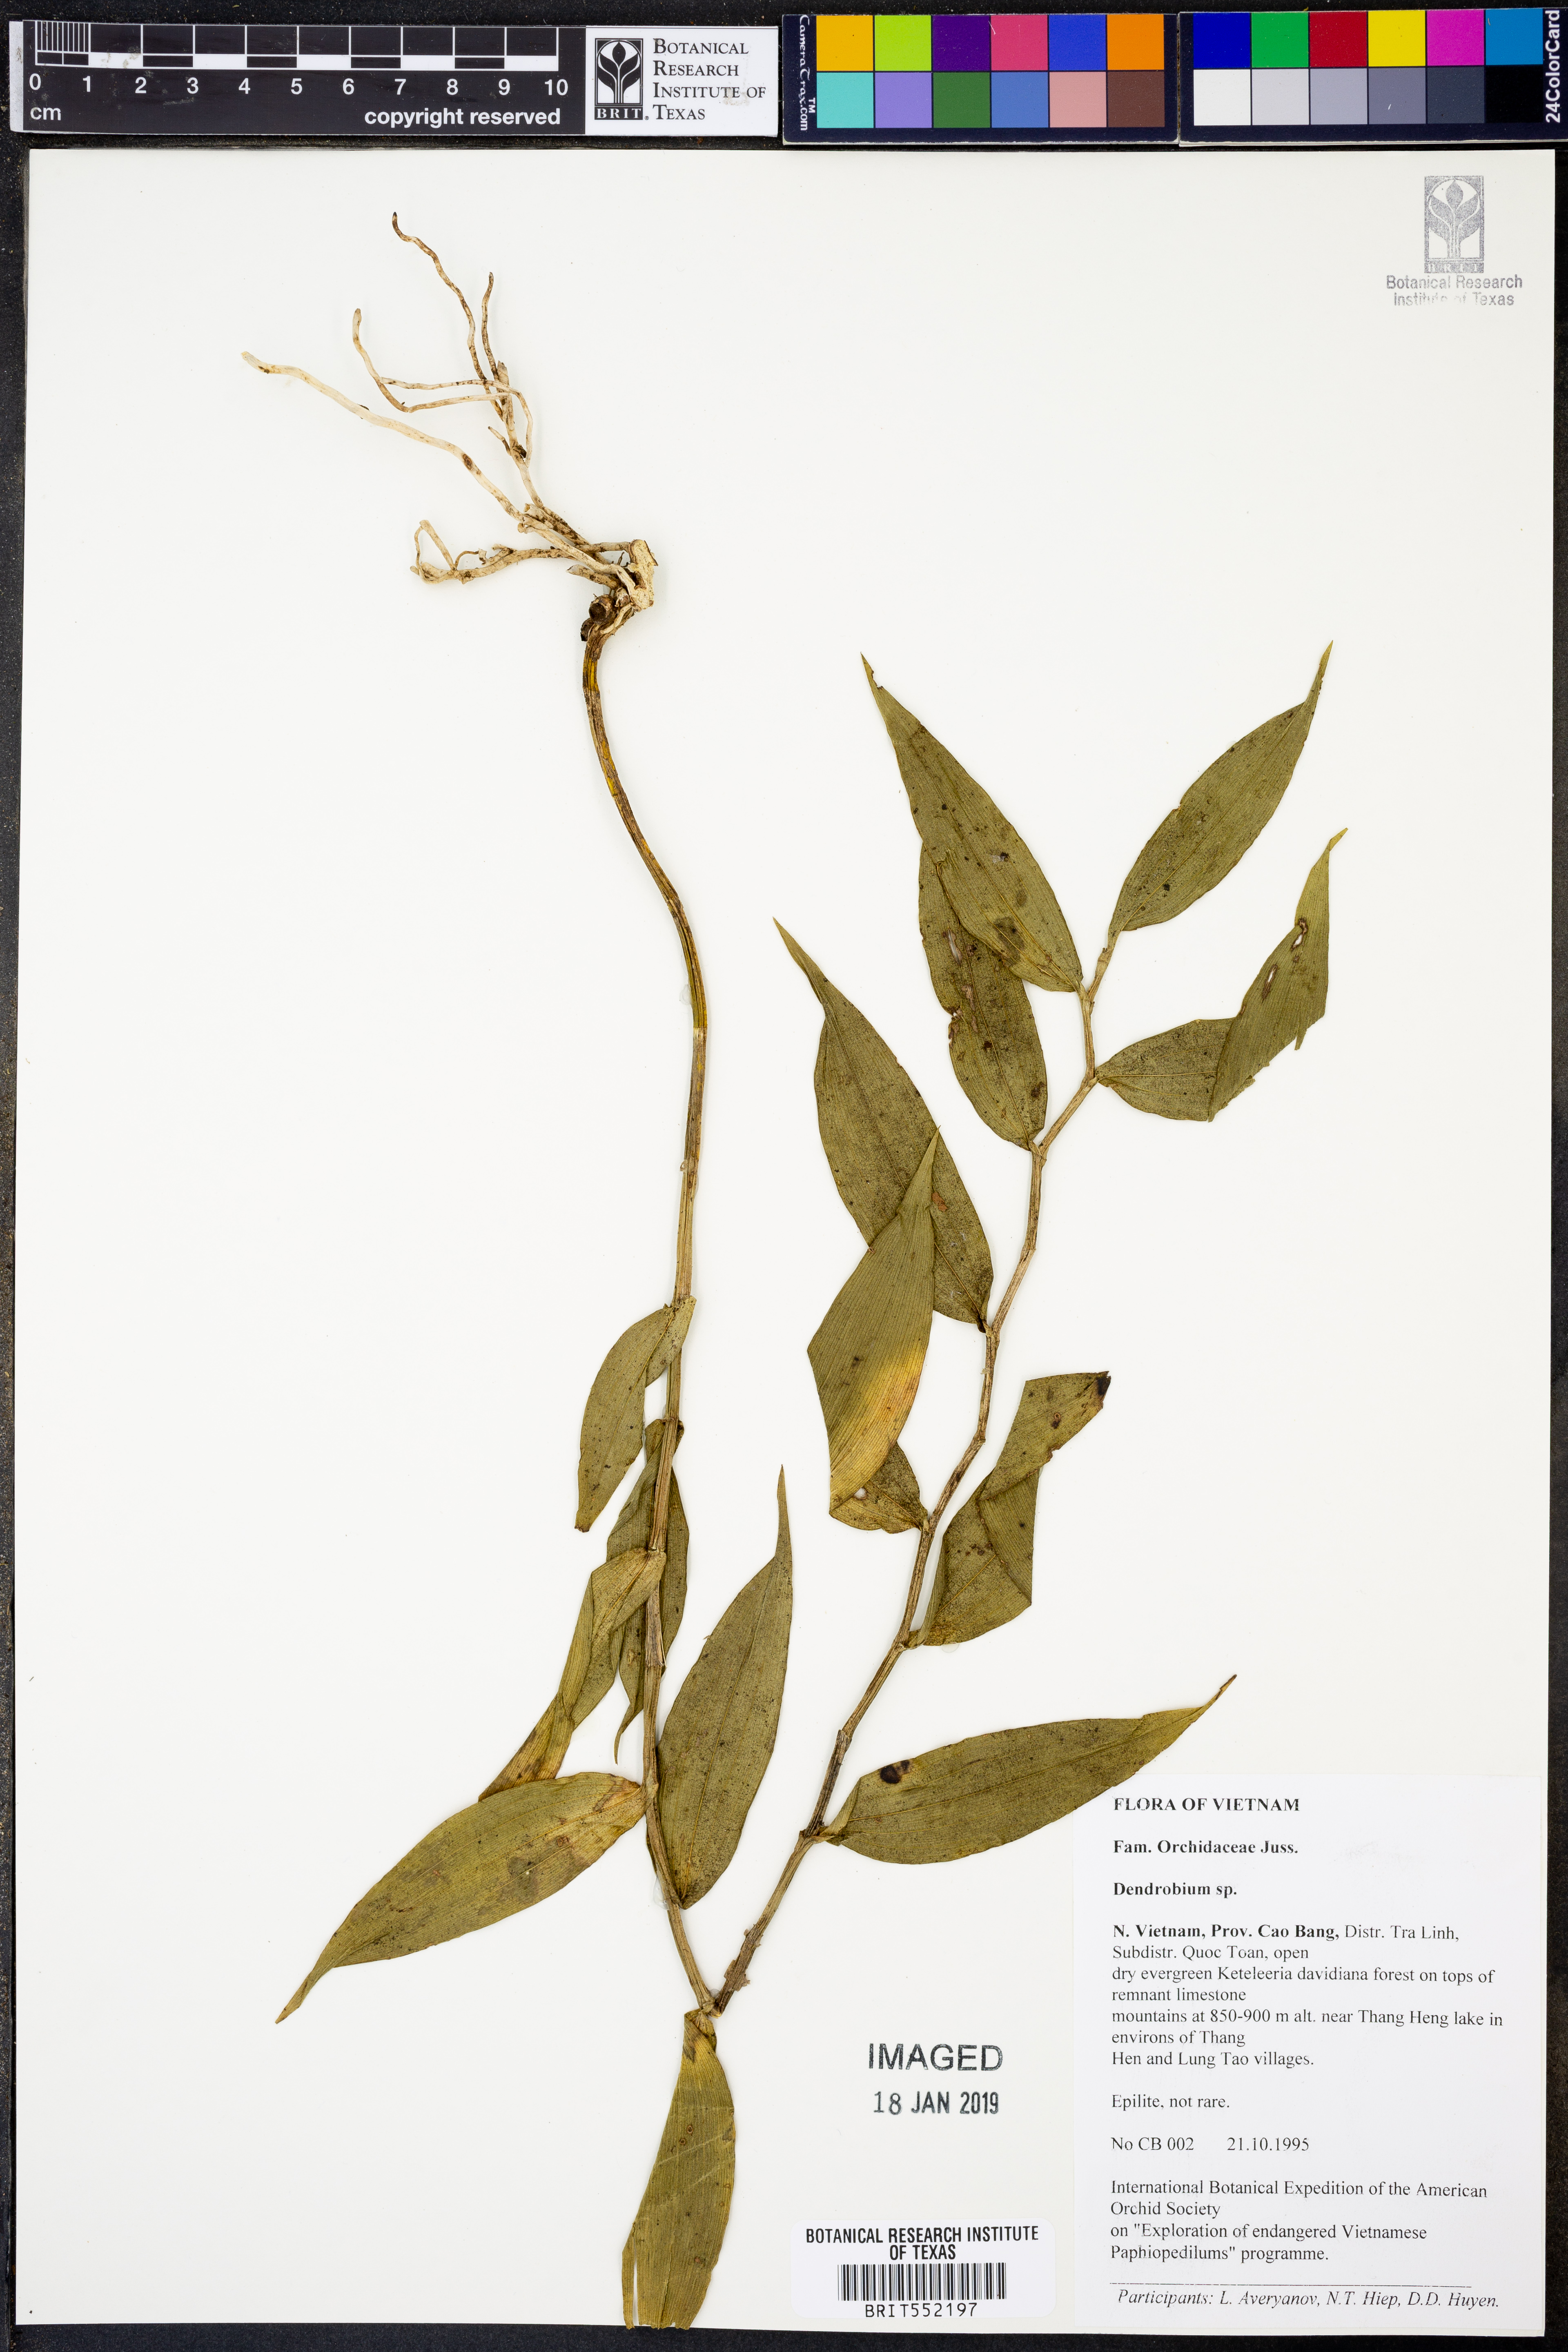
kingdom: Plantae
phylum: Tracheophyta
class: Liliopsida
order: Asparagales
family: Orchidaceae
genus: Dendrobium
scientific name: Dendrobium
